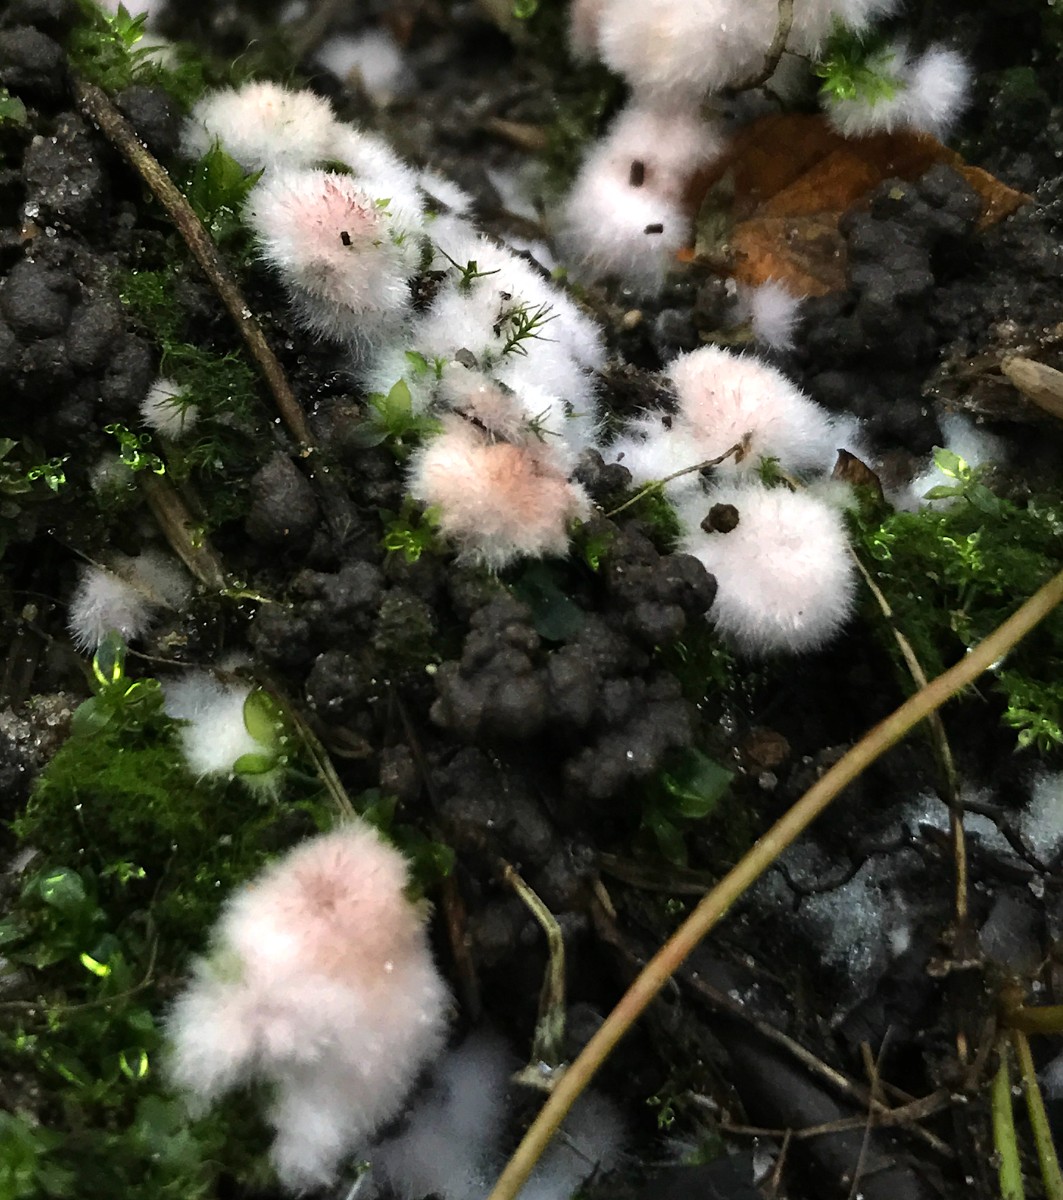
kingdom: Fungi
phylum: Basidiomycota
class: Agaricomycetes
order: Polyporales
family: Dacryobolaceae
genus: Postia
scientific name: Postia ptychogaster
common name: støvende kødporesvamp
